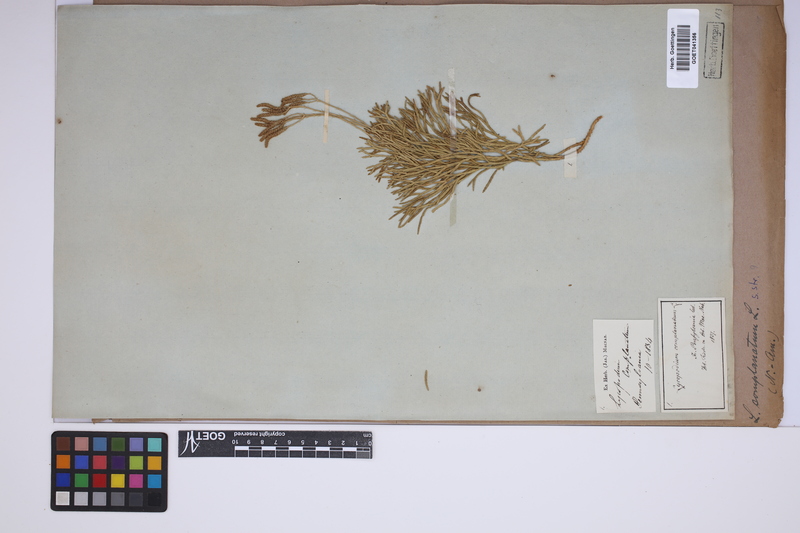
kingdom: Plantae
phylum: Tracheophyta
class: Lycopodiopsida
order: Lycopodiales
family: Lycopodiaceae
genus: Diphasiastrum
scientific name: Diphasiastrum complanatum
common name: Northern running-pine
